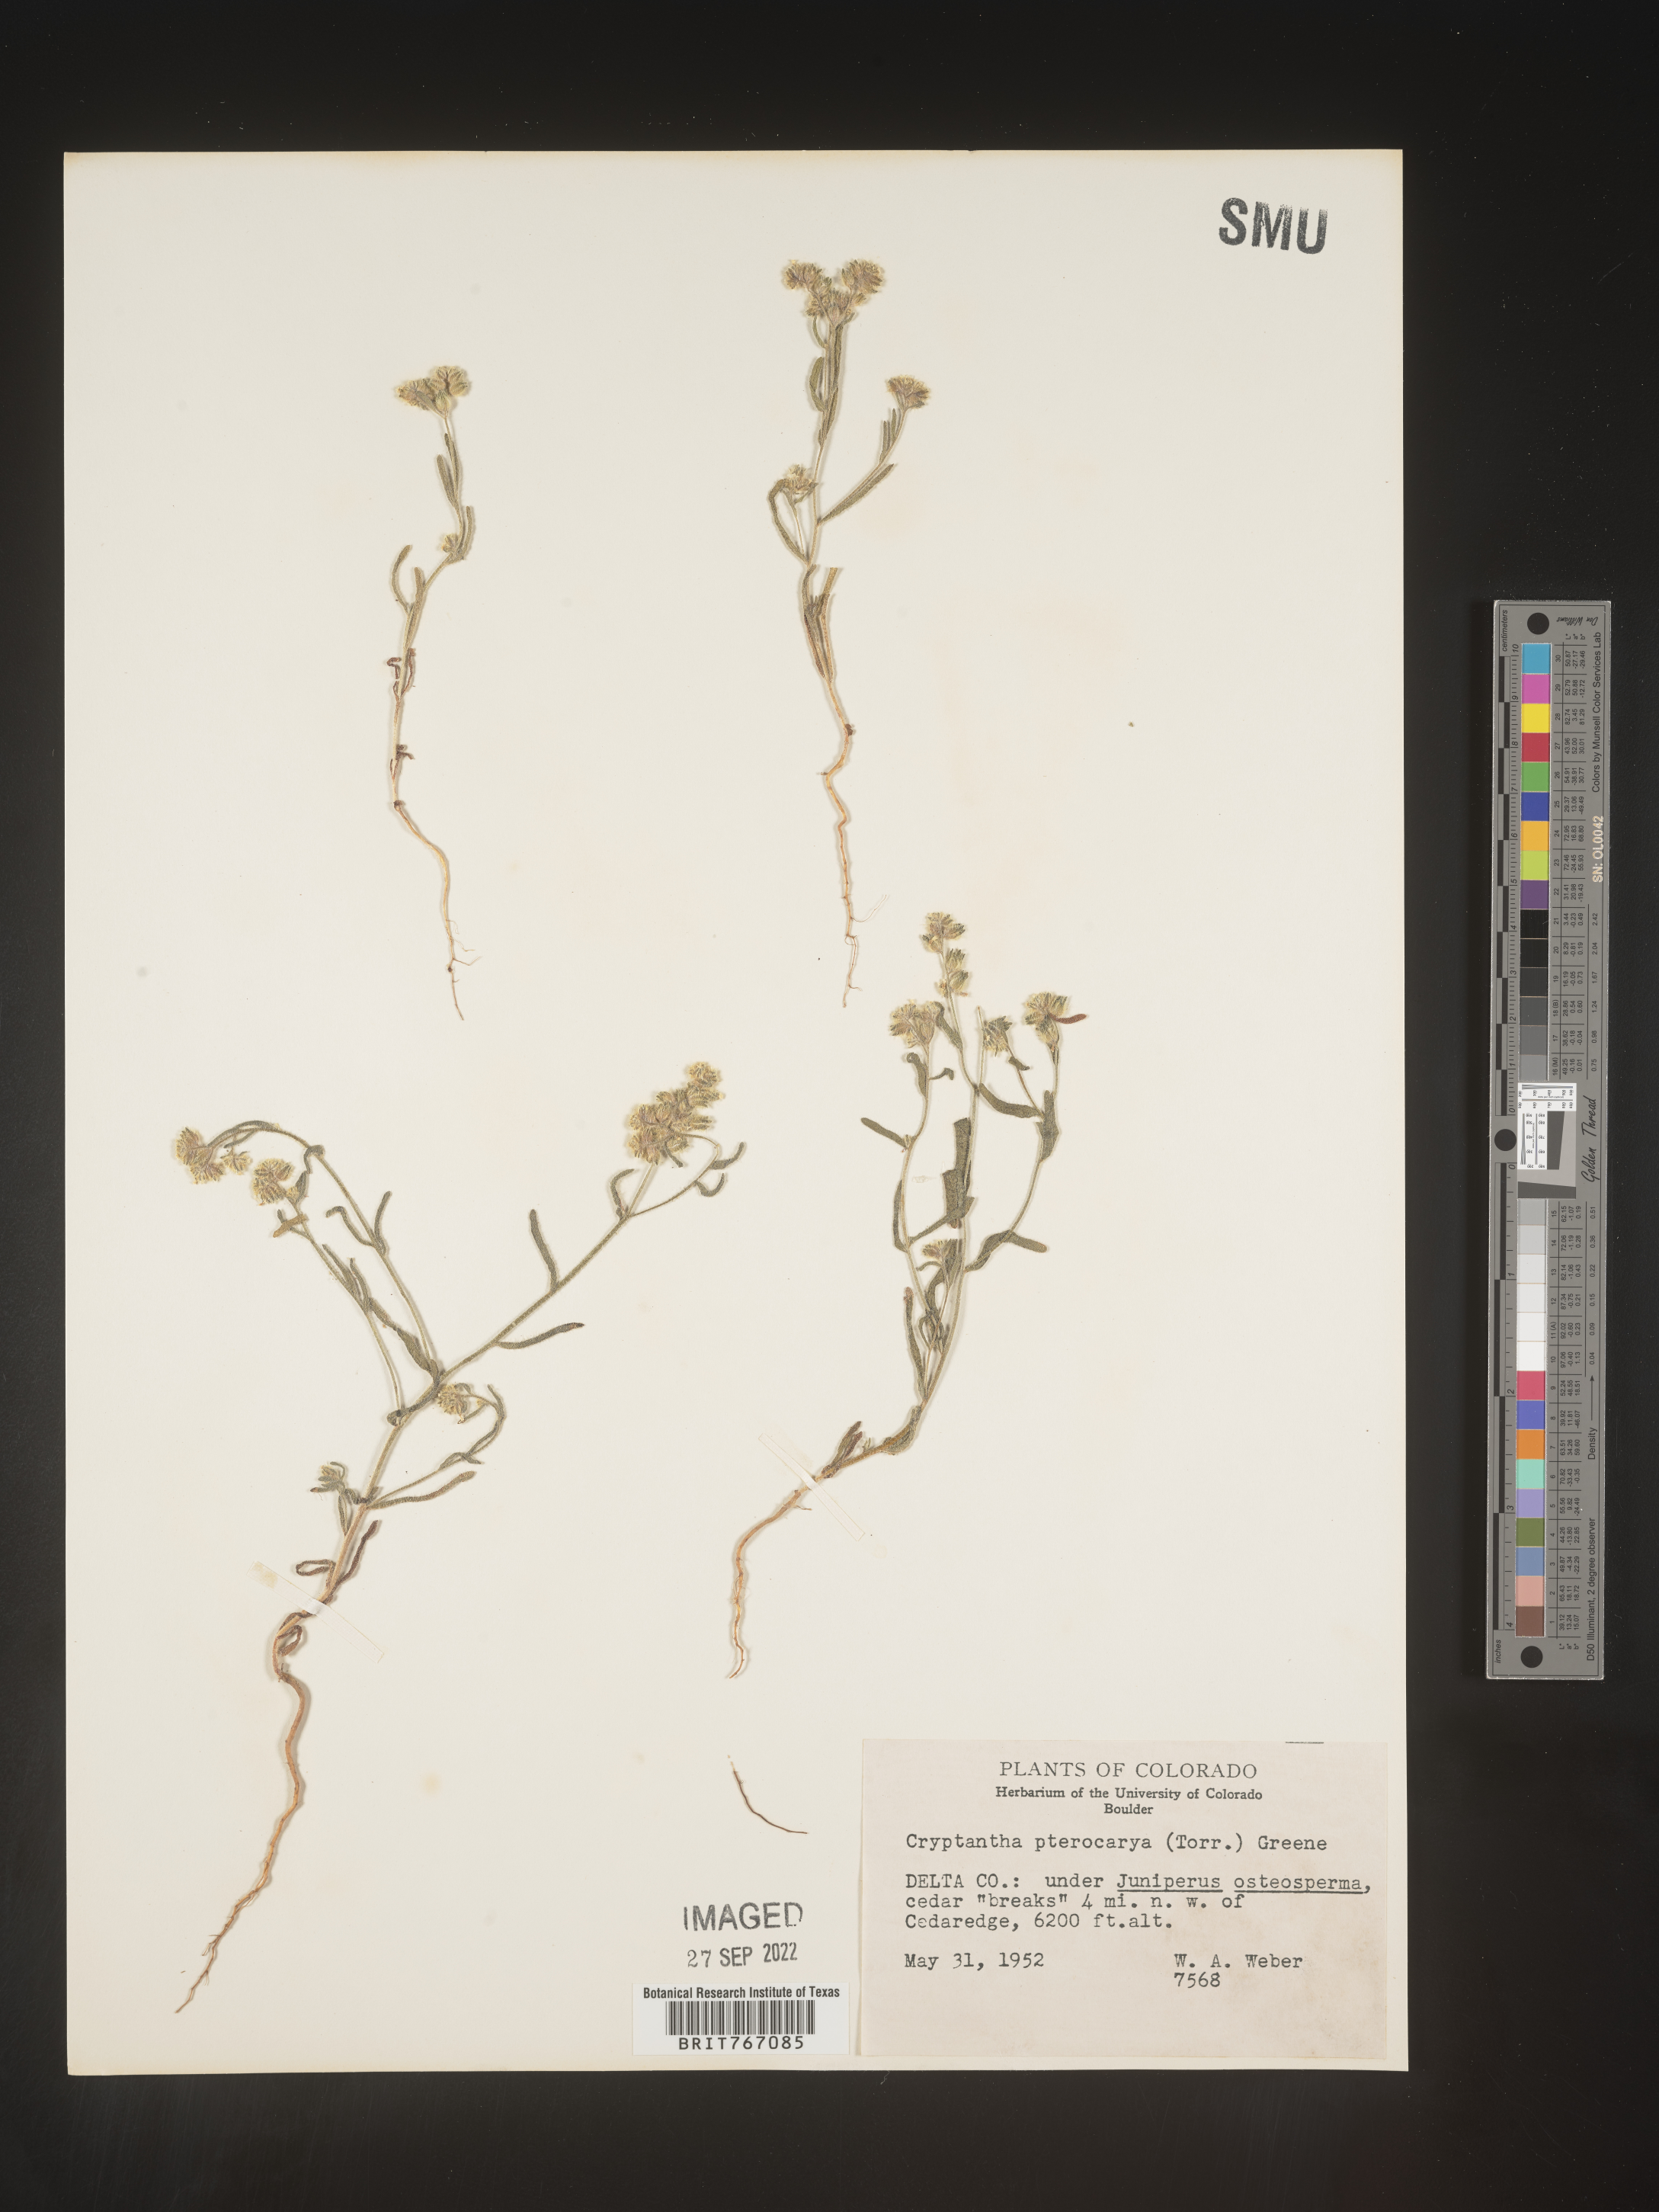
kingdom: Plantae
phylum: Tracheophyta
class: Magnoliopsida
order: Boraginales
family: Boraginaceae
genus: Cryptantha
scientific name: Cryptantha pterocarya
